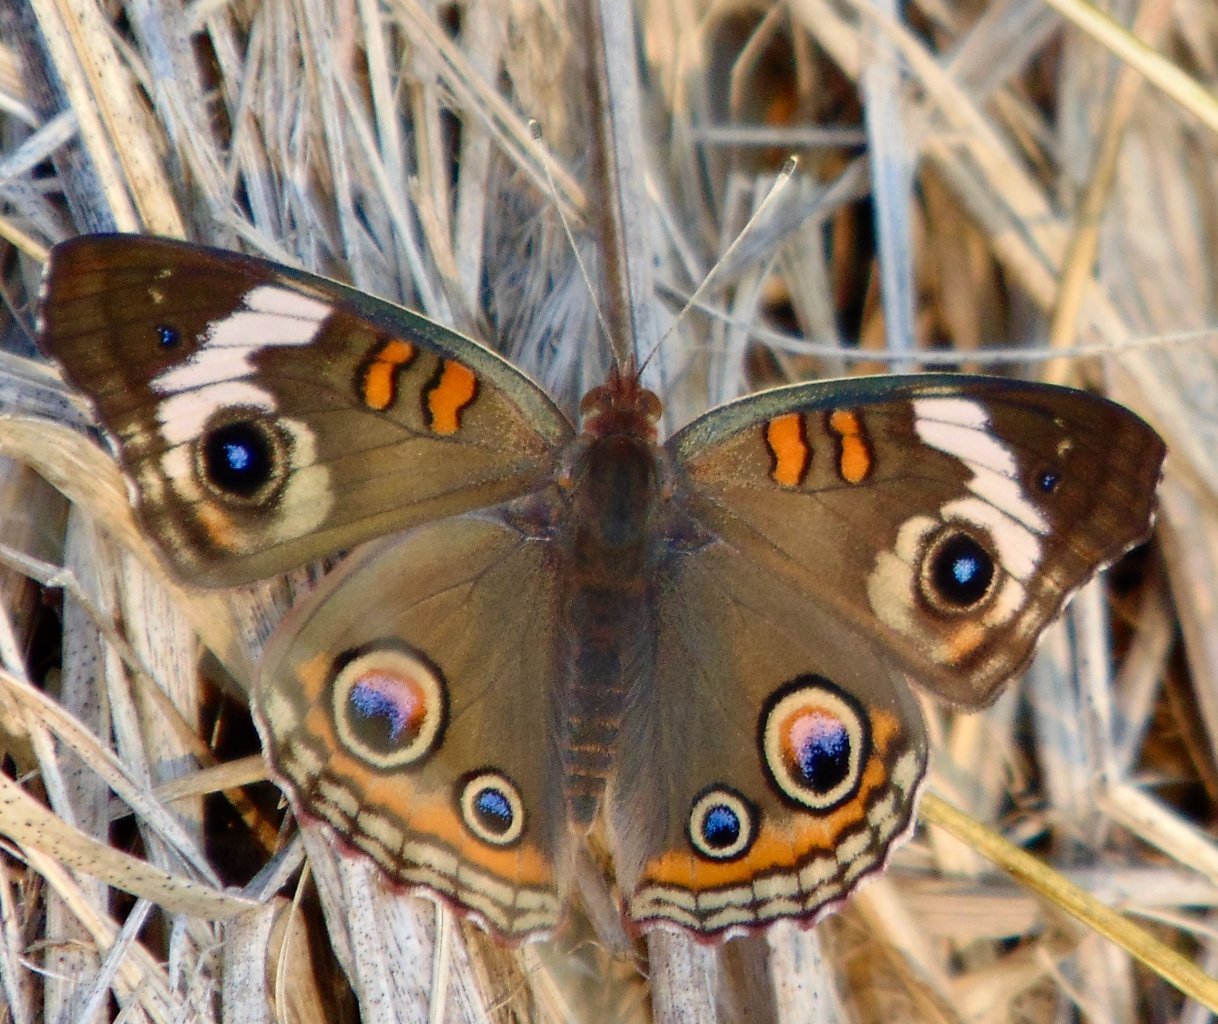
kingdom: Animalia
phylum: Arthropoda
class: Insecta
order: Lepidoptera
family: Nymphalidae
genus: Junonia
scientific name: Junonia coenia
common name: Common Buckeye
